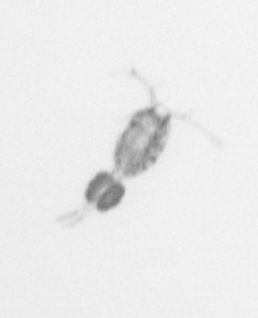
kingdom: Animalia
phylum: Arthropoda
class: Copepoda
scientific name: Copepoda
